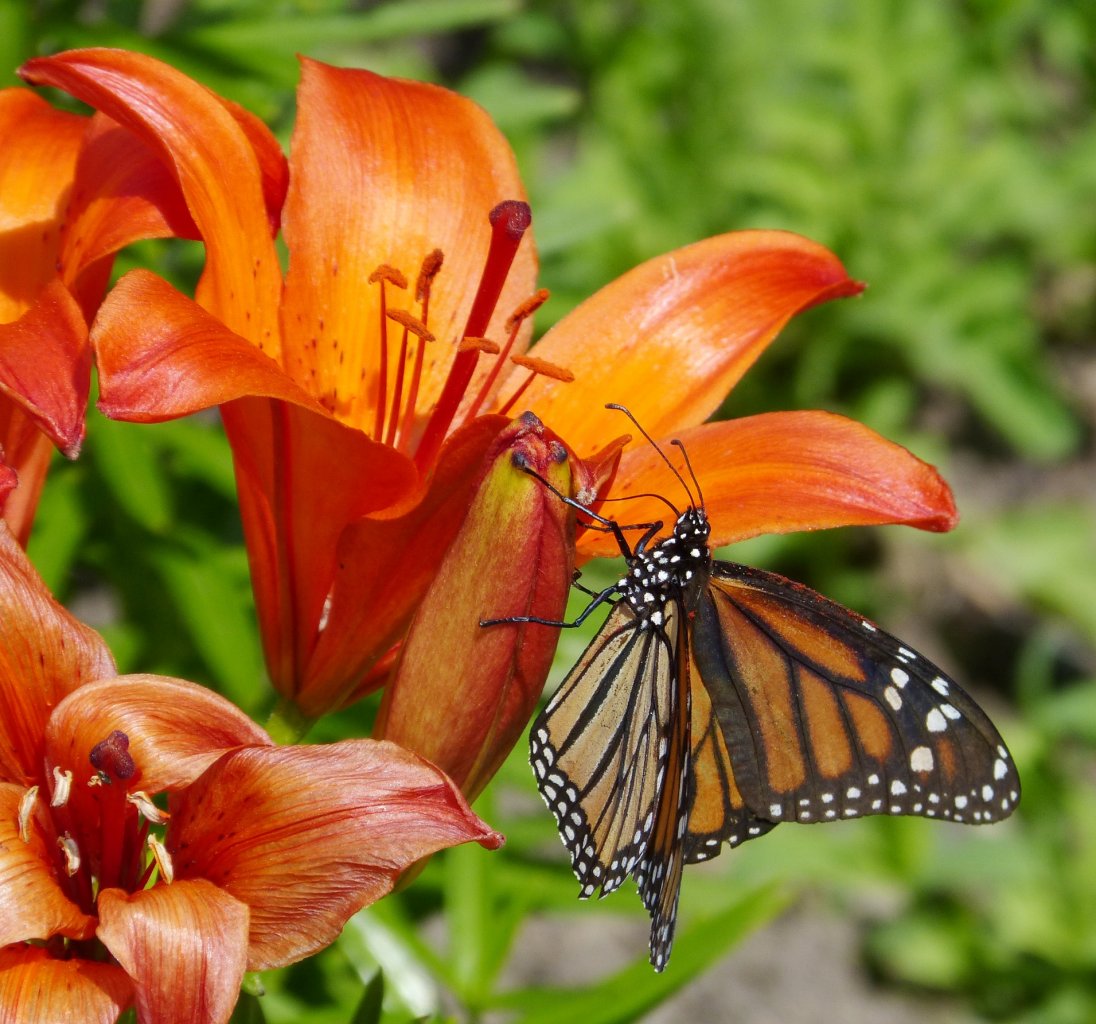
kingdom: Animalia
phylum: Arthropoda
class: Insecta
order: Lepidoptera
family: Nymphalidae
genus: Danaus
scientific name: Danaus plexippus
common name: Monarch
